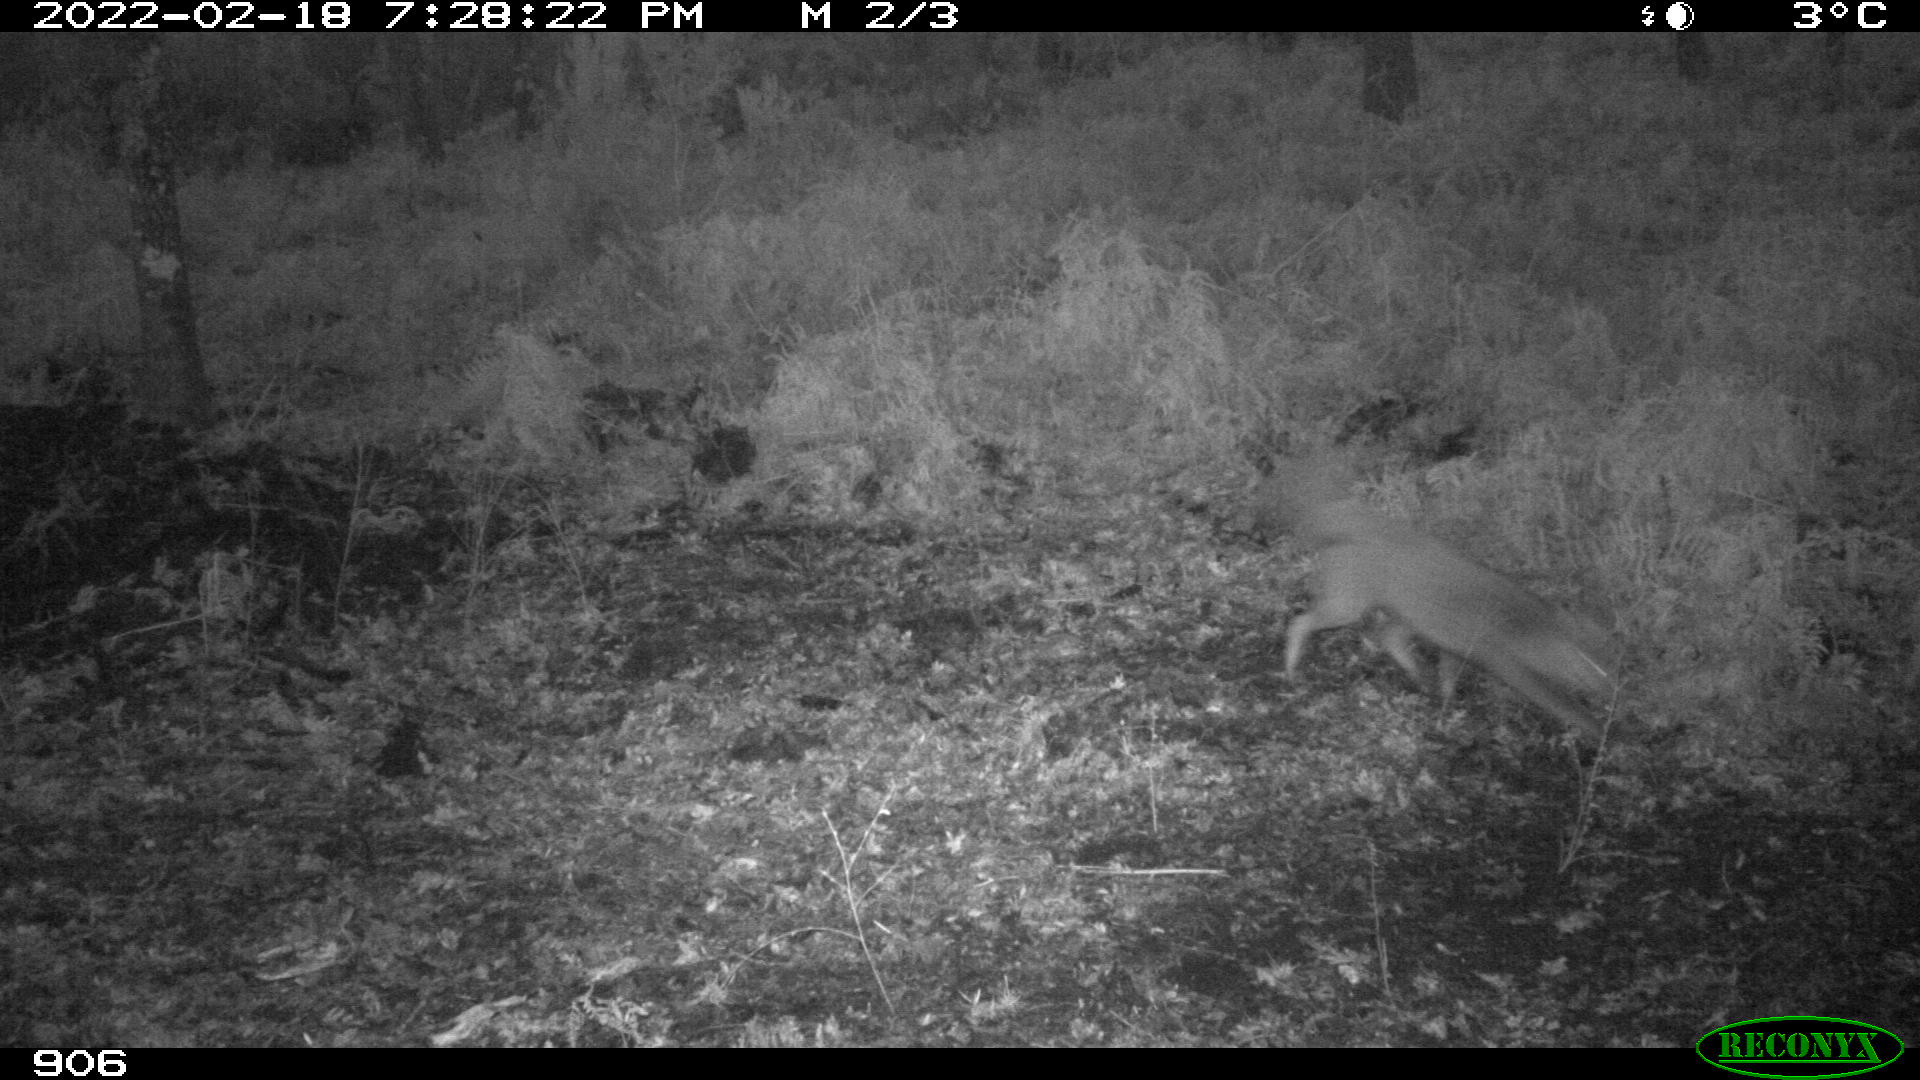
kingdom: Animalia
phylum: Chordata
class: Mammalia
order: Carnivora
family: Canidae
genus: Vulpes
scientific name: Vulpes vulpes
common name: Red fox
